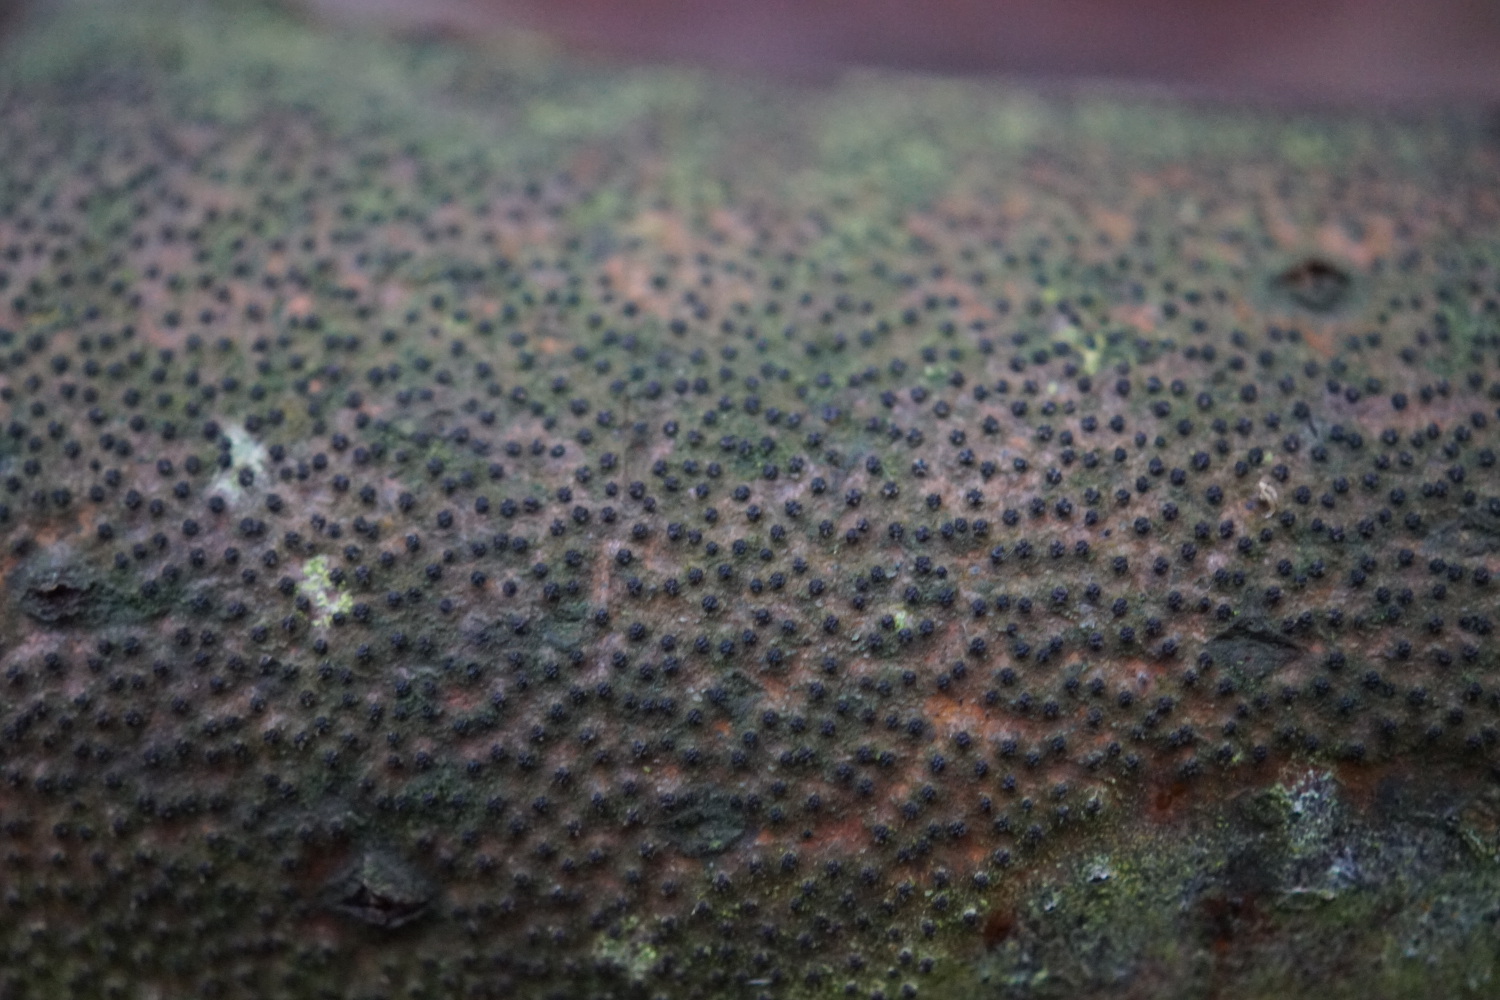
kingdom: Fungi
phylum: Ascomycota
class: Sordariomycetes
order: Xylariales
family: Diatrypaceae
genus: Eutypella
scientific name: Eutypella quaternata
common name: bøge-korsprik
